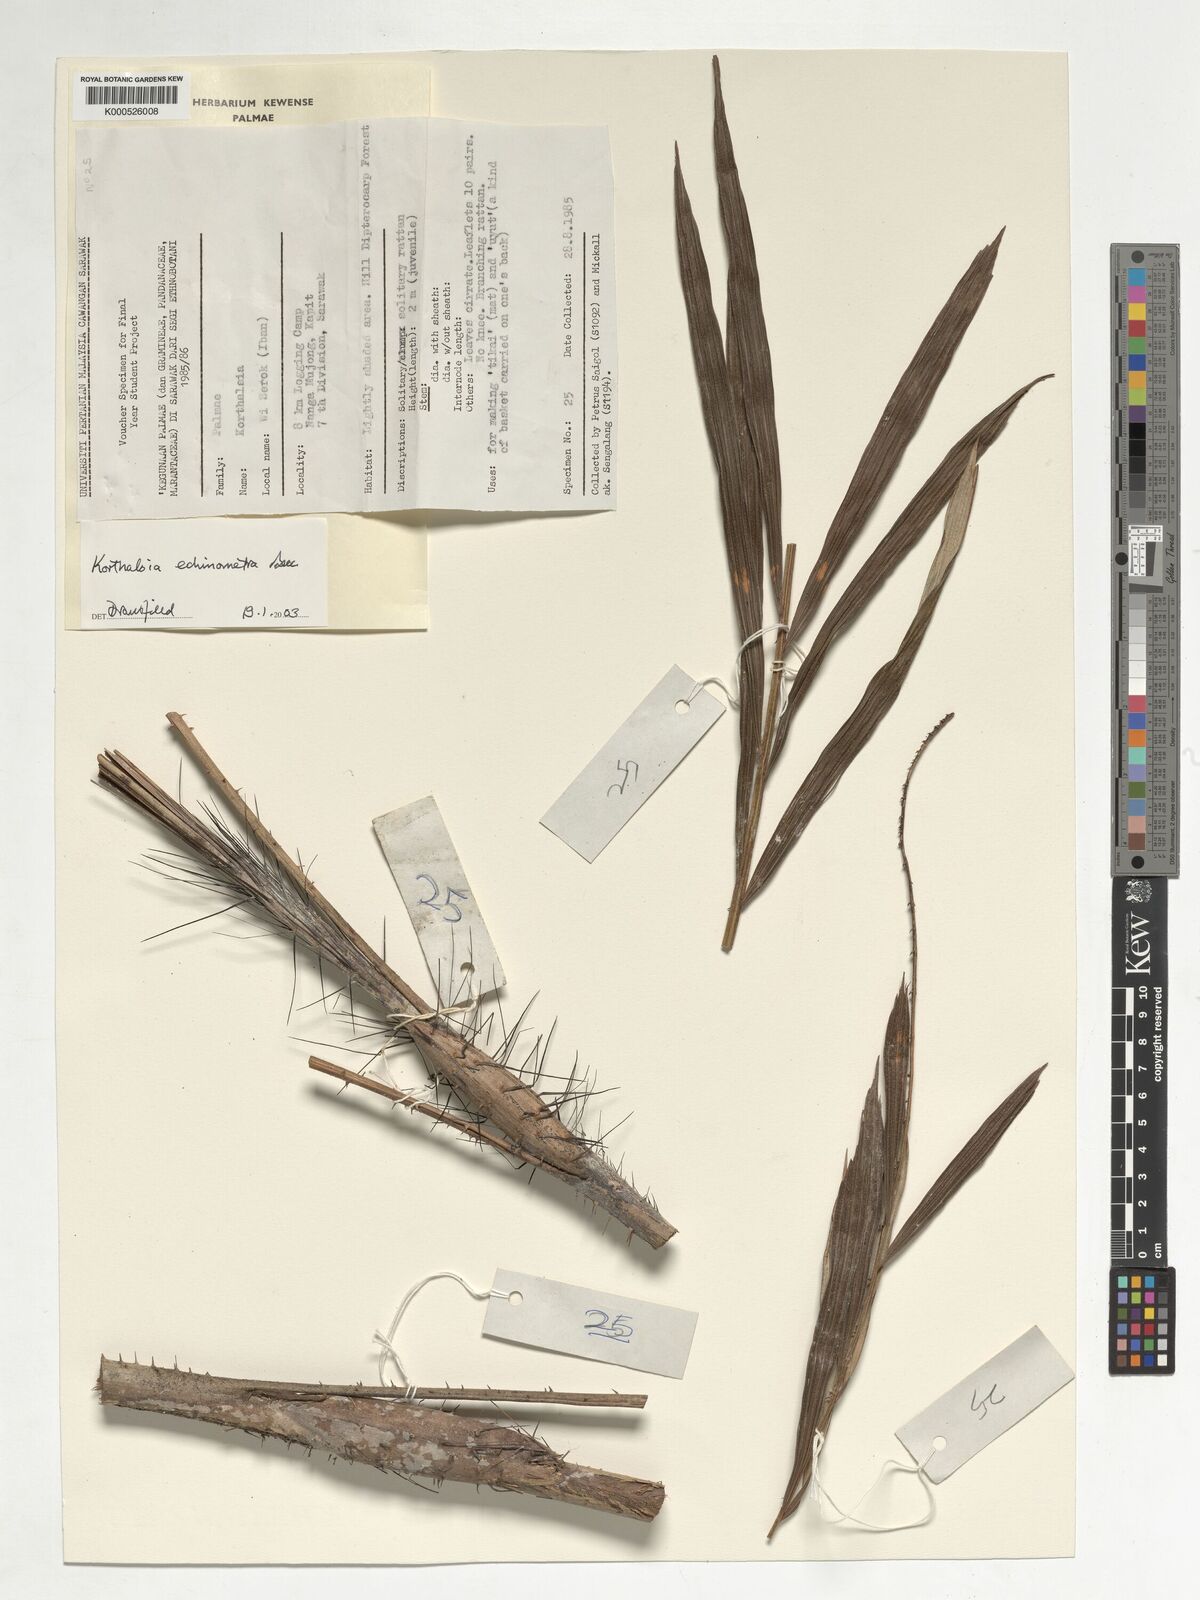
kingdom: Plantae
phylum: Tracheophyta
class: Liliopsida
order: Arecales
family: Arecaceae
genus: Korthalsia
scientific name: Korthalsia echinometra
